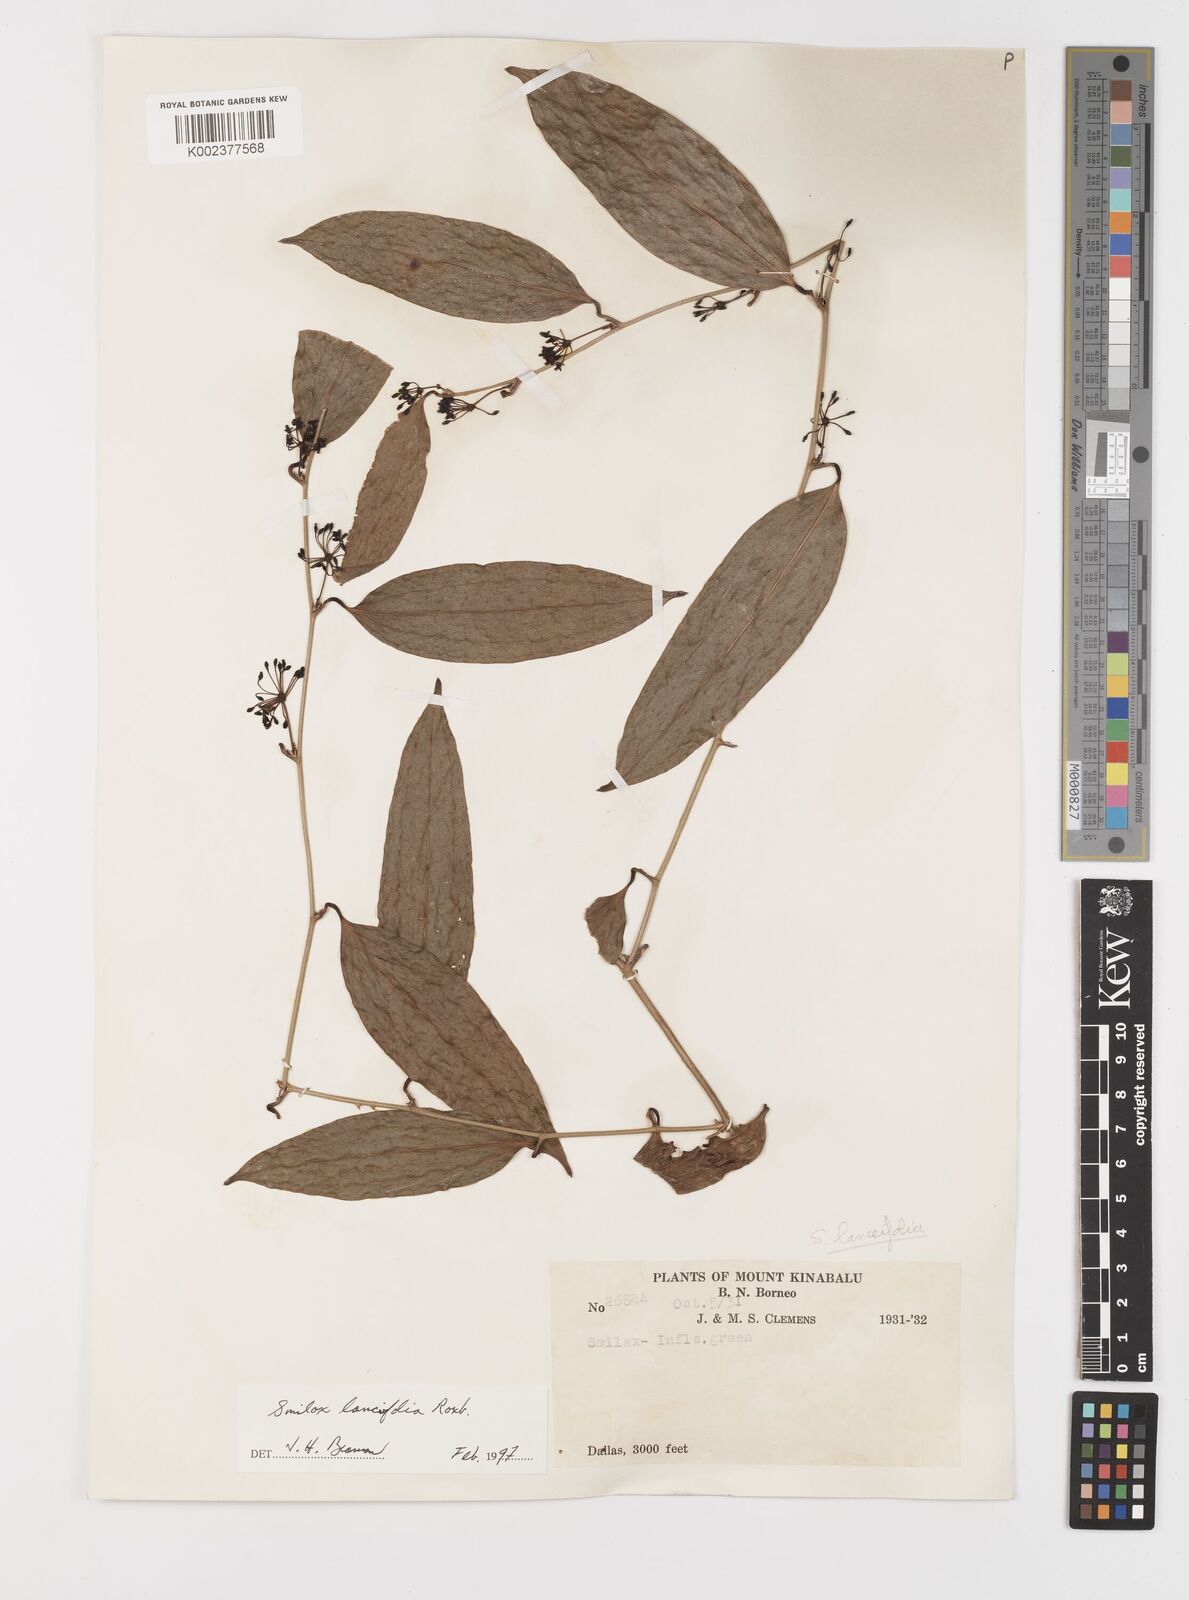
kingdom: Plantae
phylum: Tracheophyta
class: Liliopsida
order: Liliales
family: Smilacaceae
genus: Smilax
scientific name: Smilax lanceifolia
